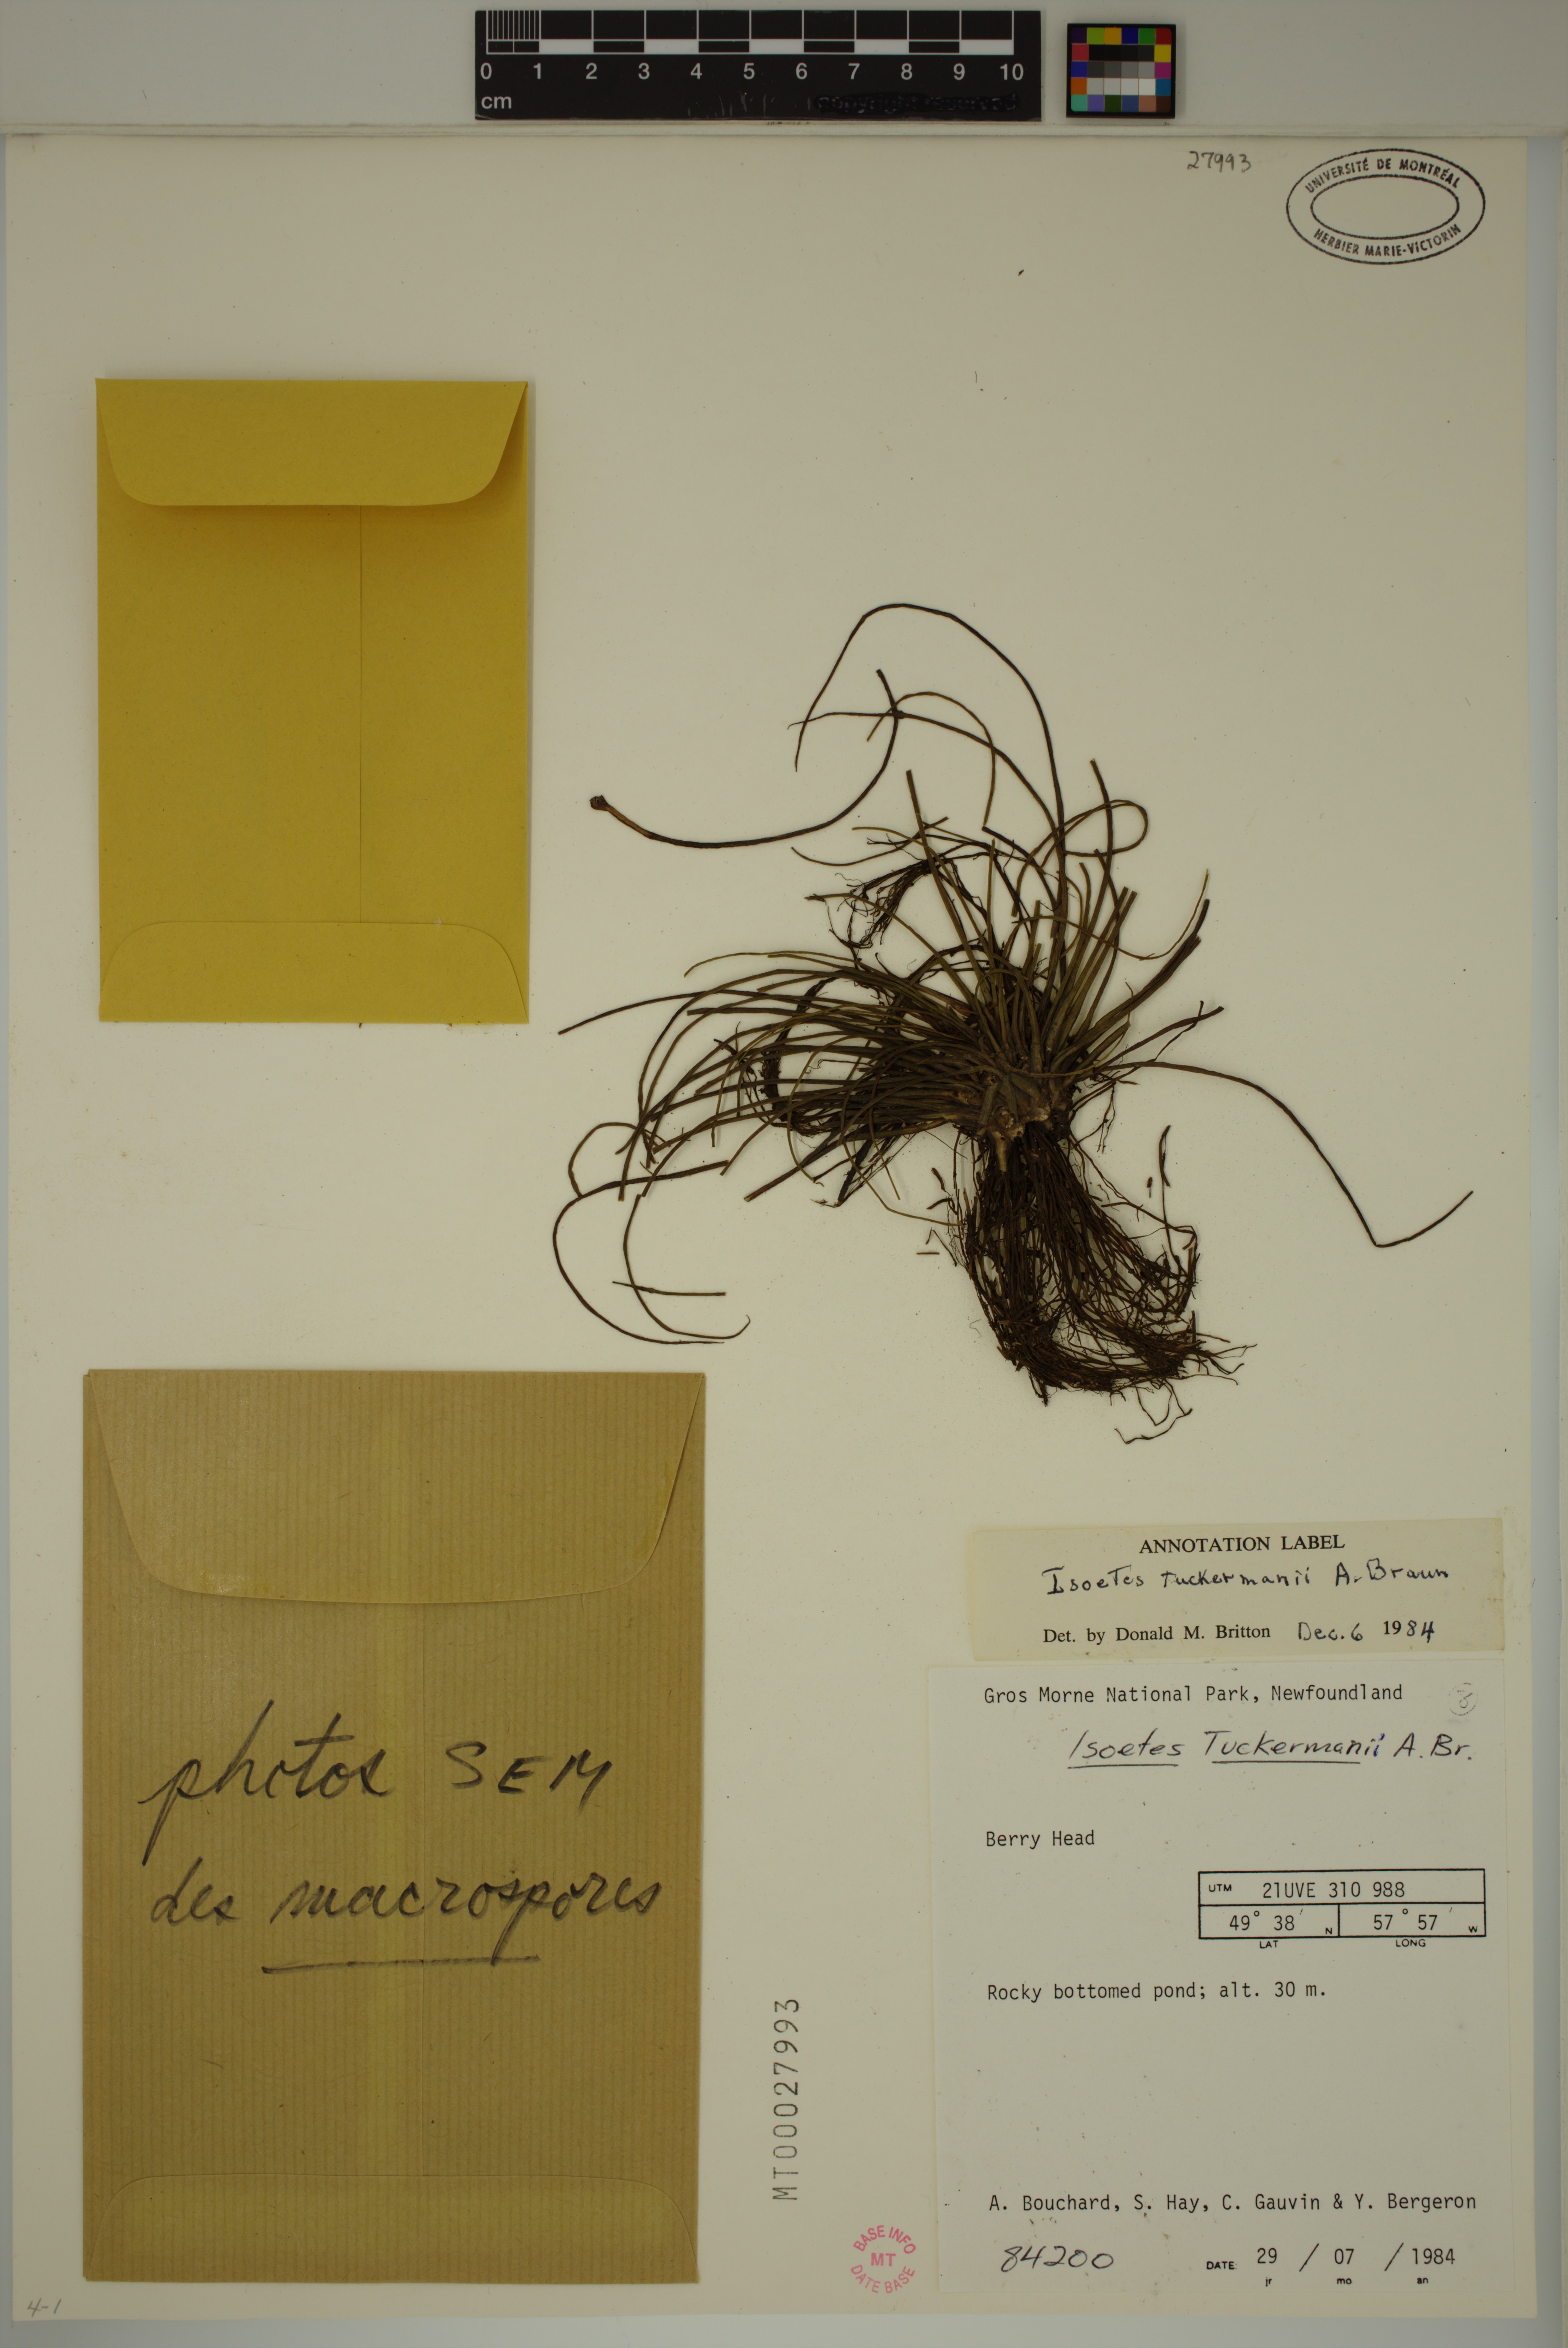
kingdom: Plantae
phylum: Tracheophyta
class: Lycopodiopsida
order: Isoetales
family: Isoetaceae
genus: Isoetes
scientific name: Isoetes harveyi
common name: Harvey's quillwort
